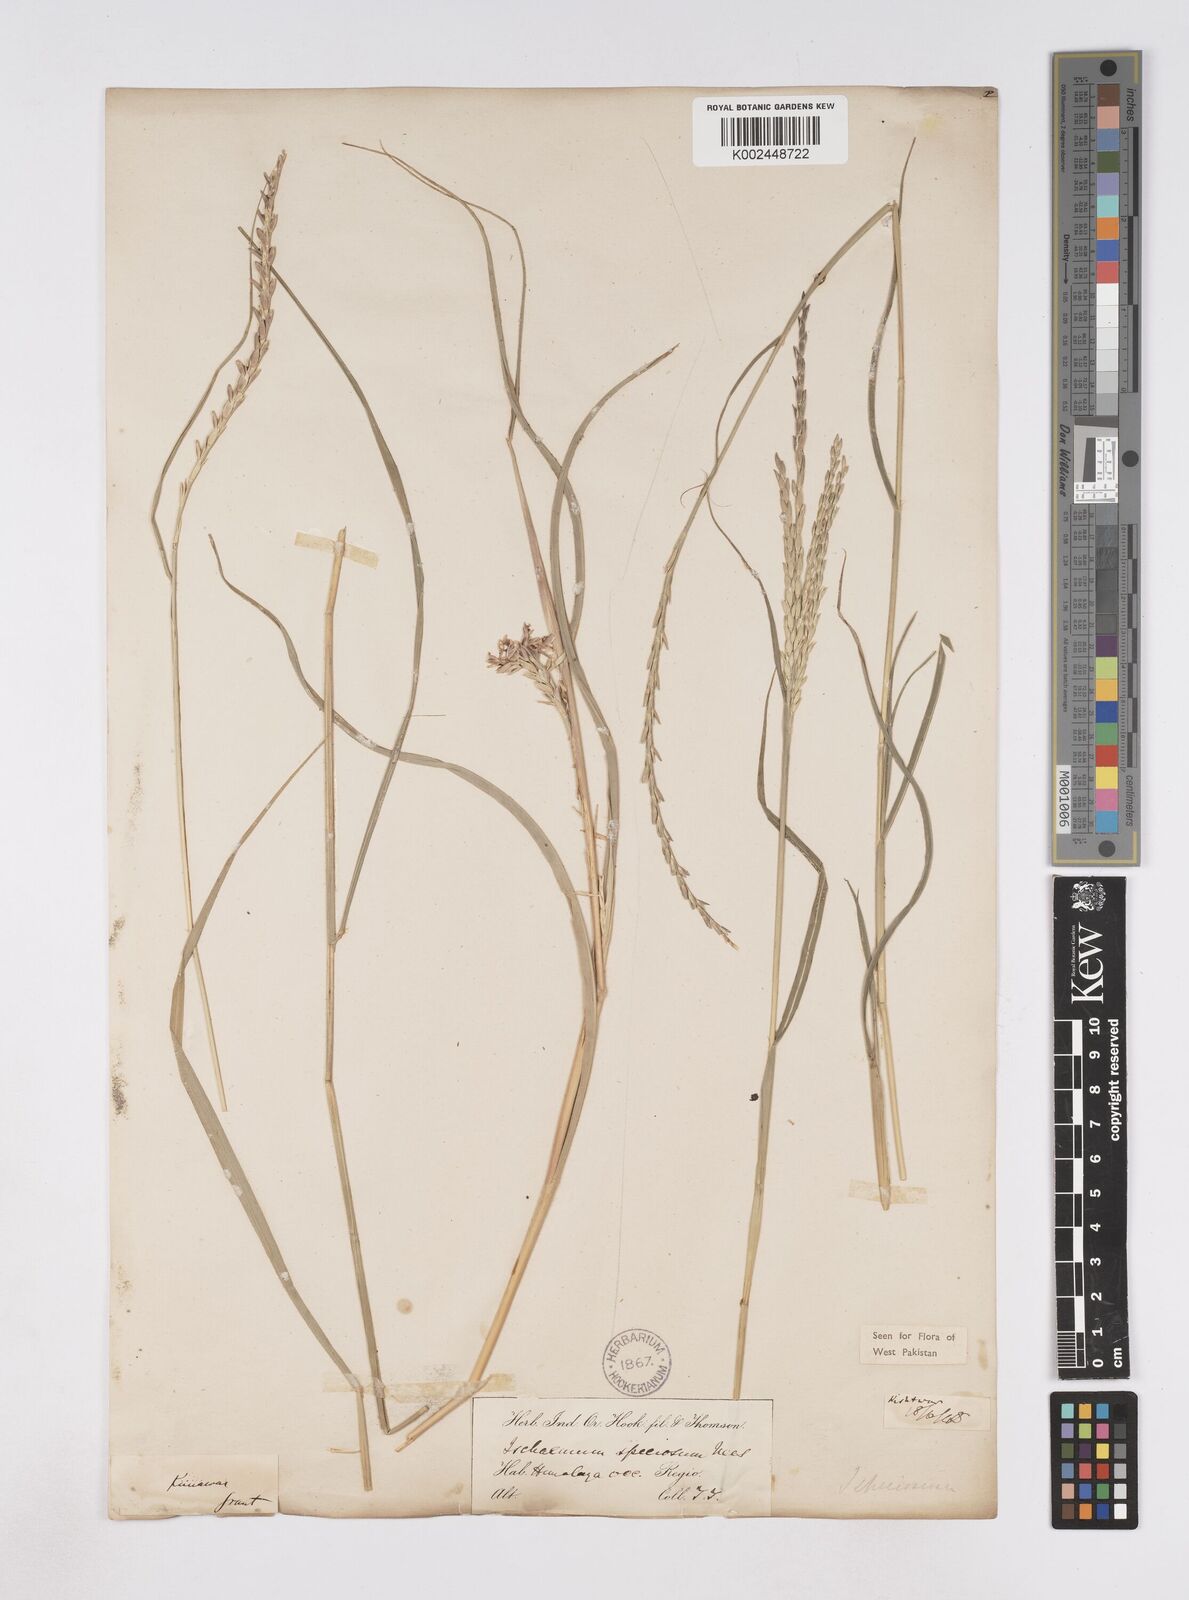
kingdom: Plantae
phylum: Tracheophyta
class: Liliopsida
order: Poales
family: Poaceae
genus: Phacelurus
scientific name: Phacelurus speciosus
